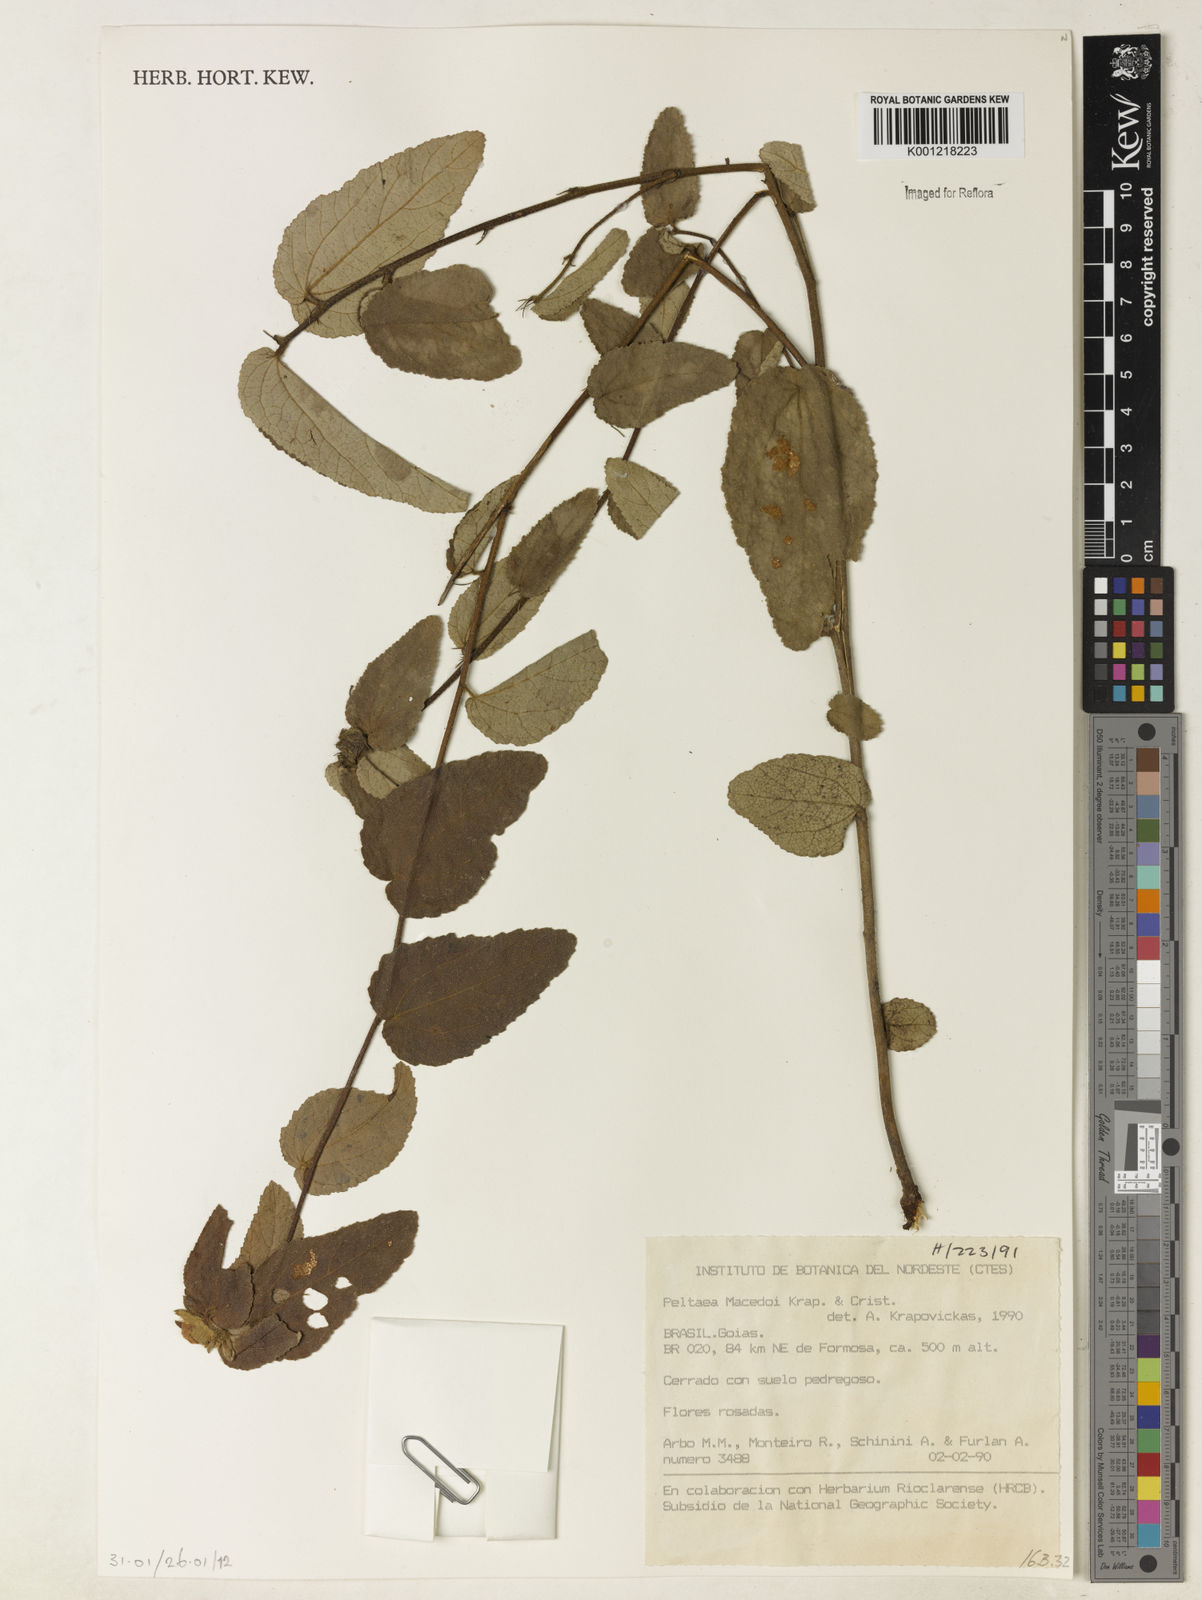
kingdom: Plantae
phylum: Tracheophyta
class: Magnoliopsida
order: Malvales
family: Malvaceae
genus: Peltaea
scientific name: Peltaea
